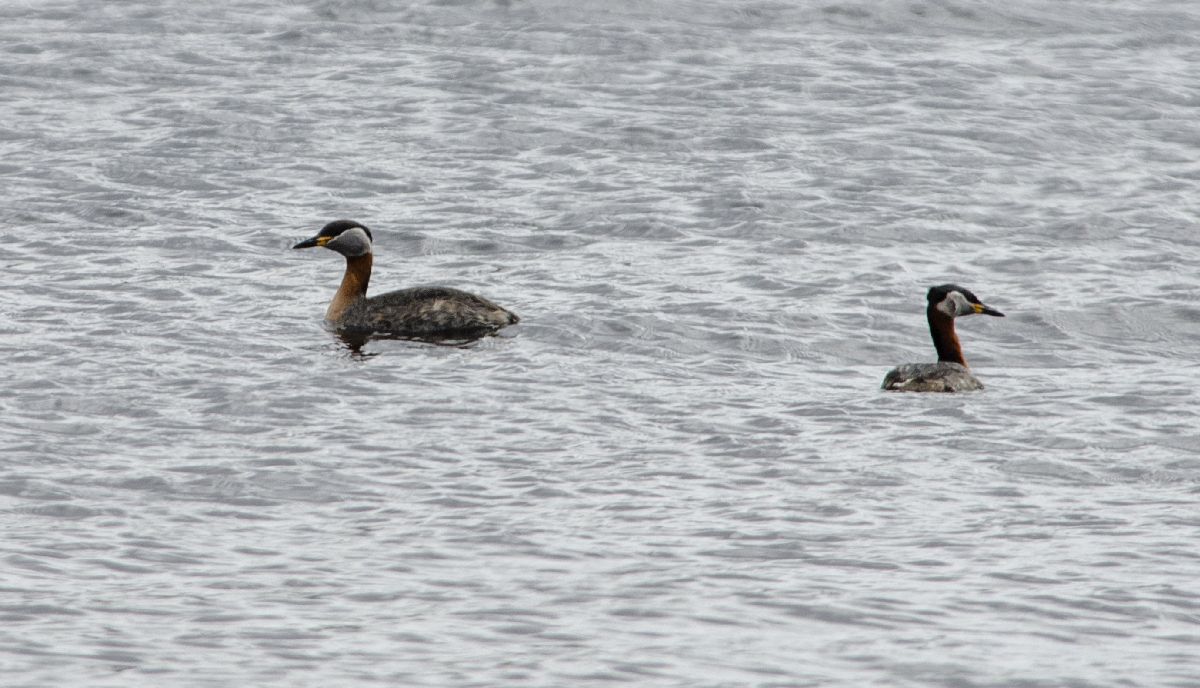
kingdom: Animalia
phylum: Chordata
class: Aves
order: Podicipediformes
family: Podicipedidae
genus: Podiceps
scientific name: Podiceps grisegena
